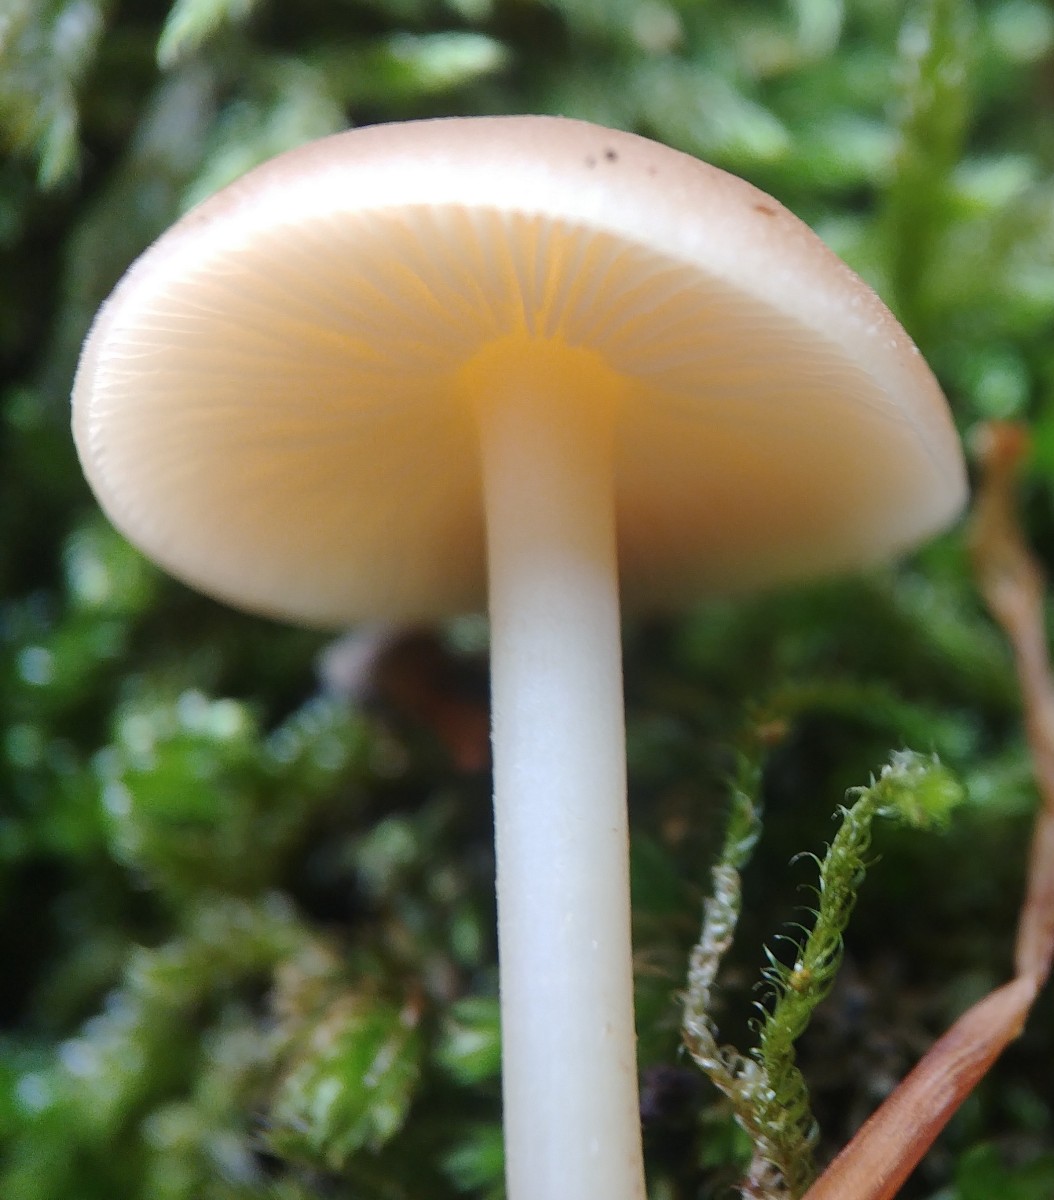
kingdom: Fungi
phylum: Basidiomycota
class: Agaricomycetes
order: Agaricales
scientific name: Agaricales
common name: champignonordenen
